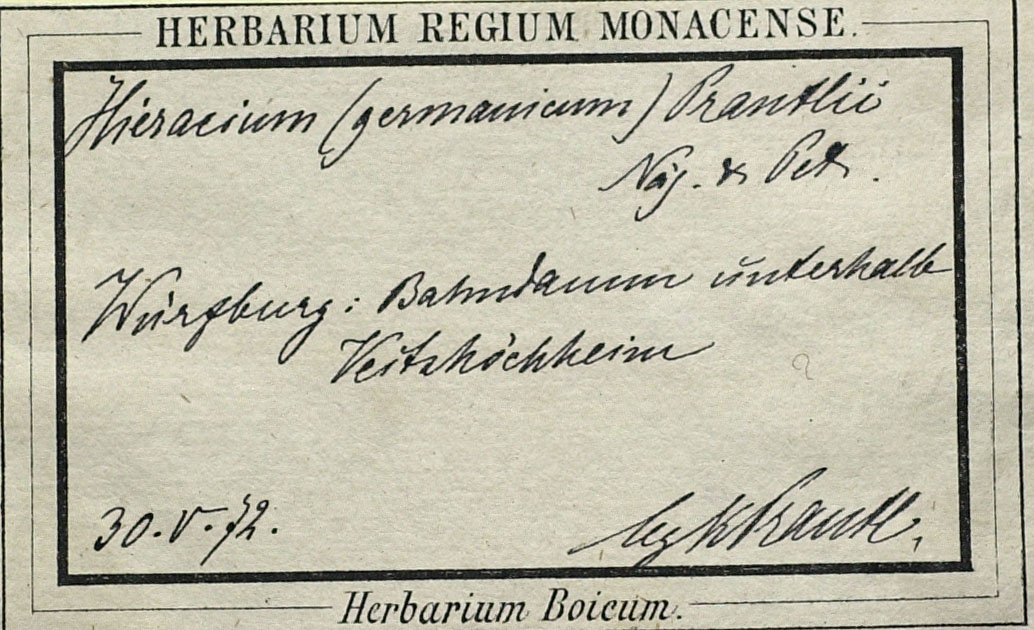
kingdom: Plantae
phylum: Tracheophyta
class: Magnoliopsida
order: Asterales
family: Asteraceae
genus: Pilosella
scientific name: Pilosella fallacina
